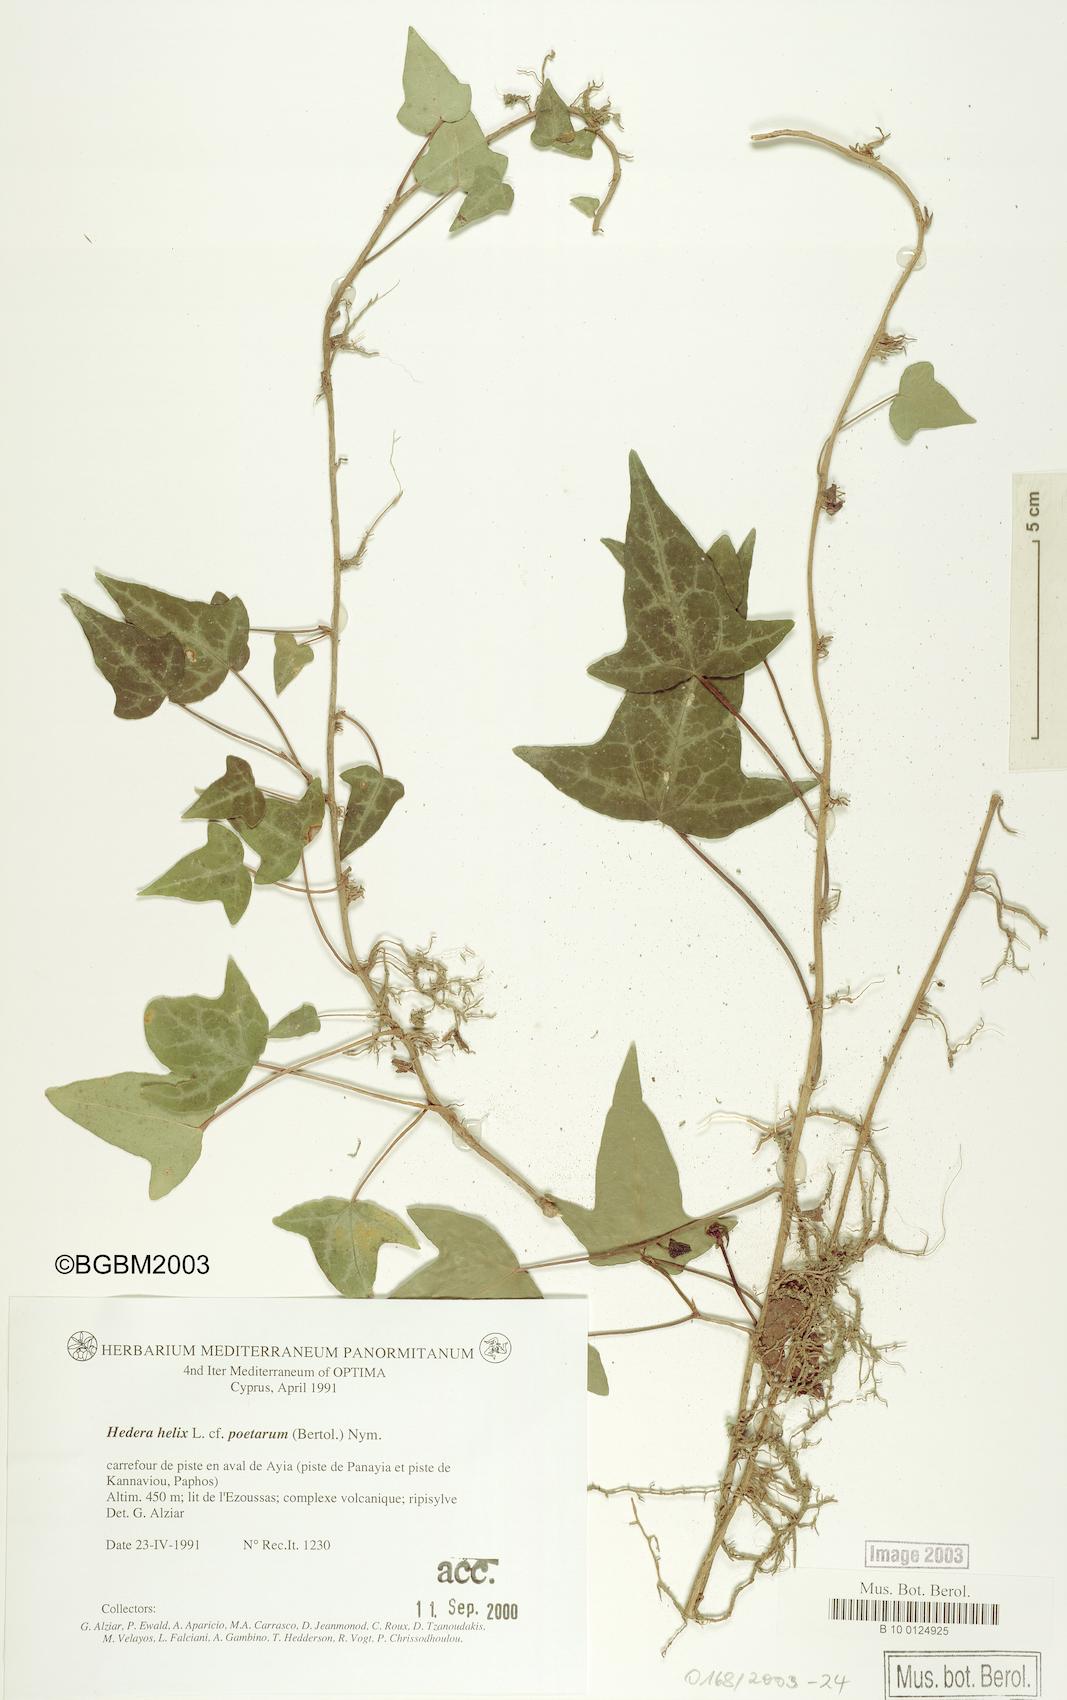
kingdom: Plantae
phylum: Tracheophyta
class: Magnoliopsida
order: Apiales
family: Araliaceae
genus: Hedera
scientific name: Hedera helix
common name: Ivy
